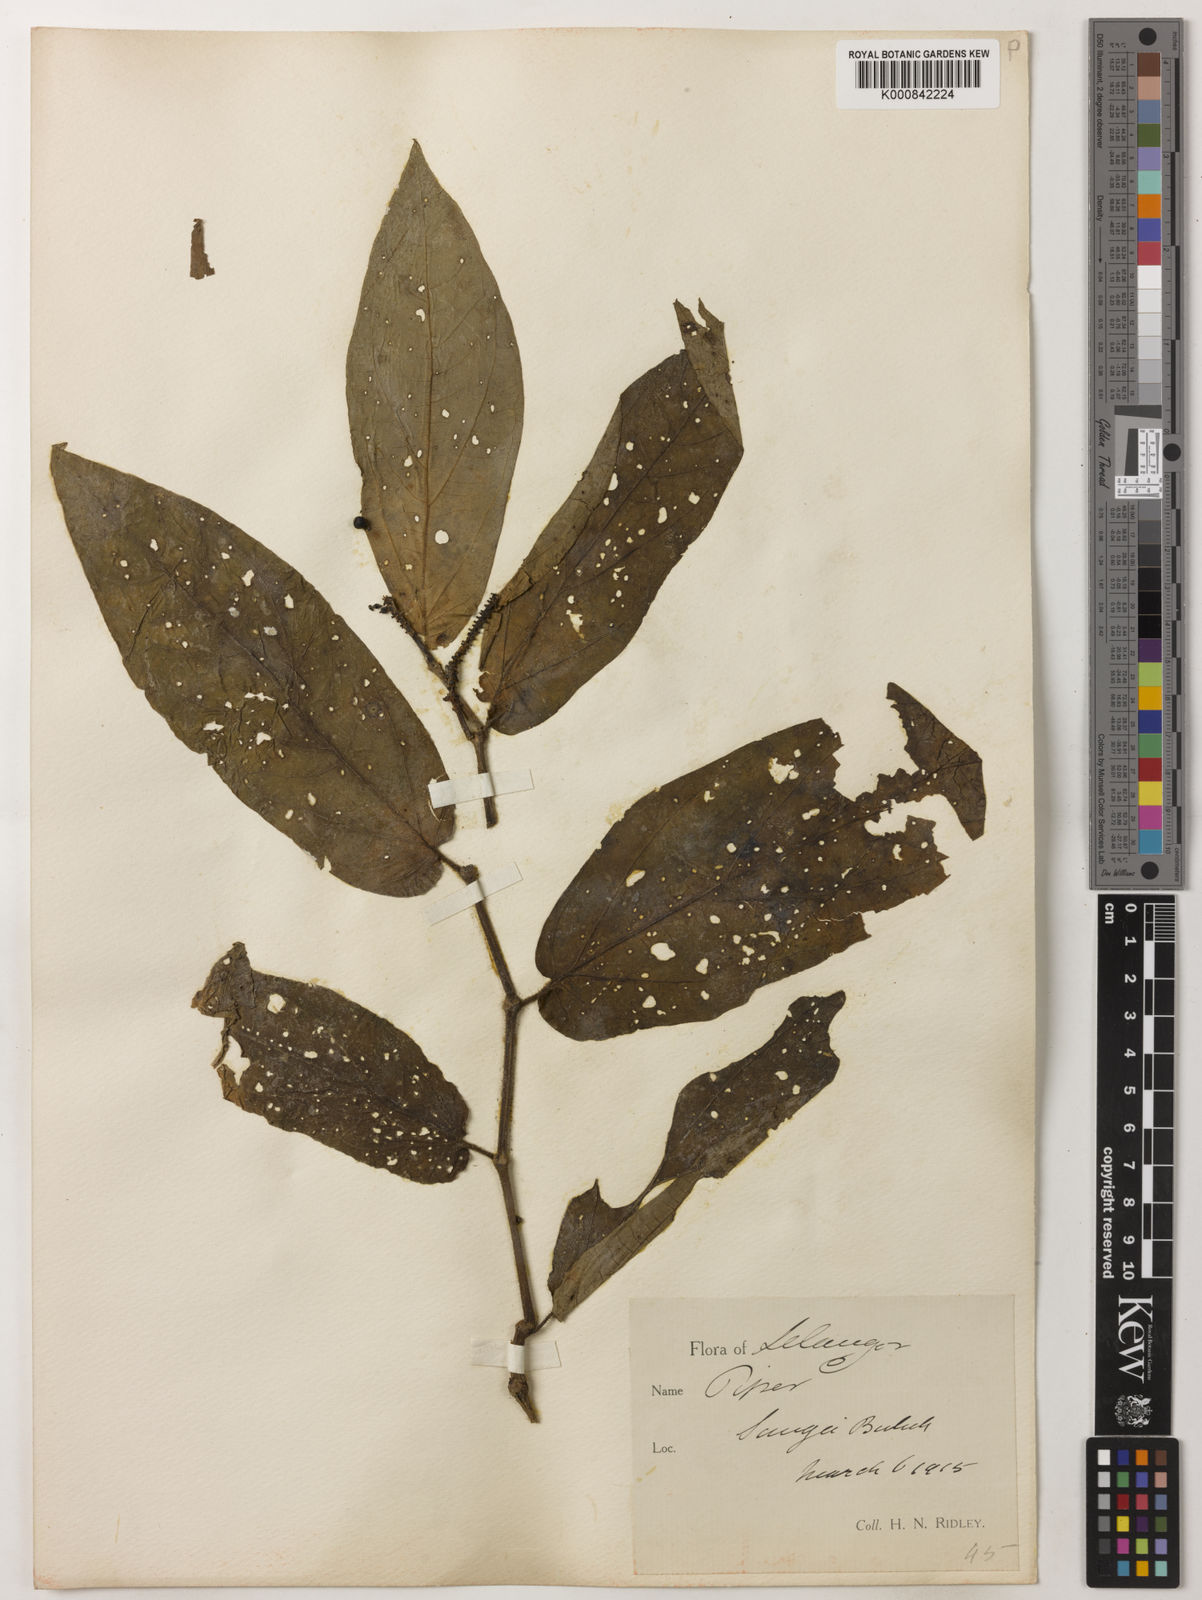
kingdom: Plantae
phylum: Tracheophyta
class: Magnoliopsida
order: Piperales
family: Piperaceae
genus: Piper
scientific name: Piper ridleyi
